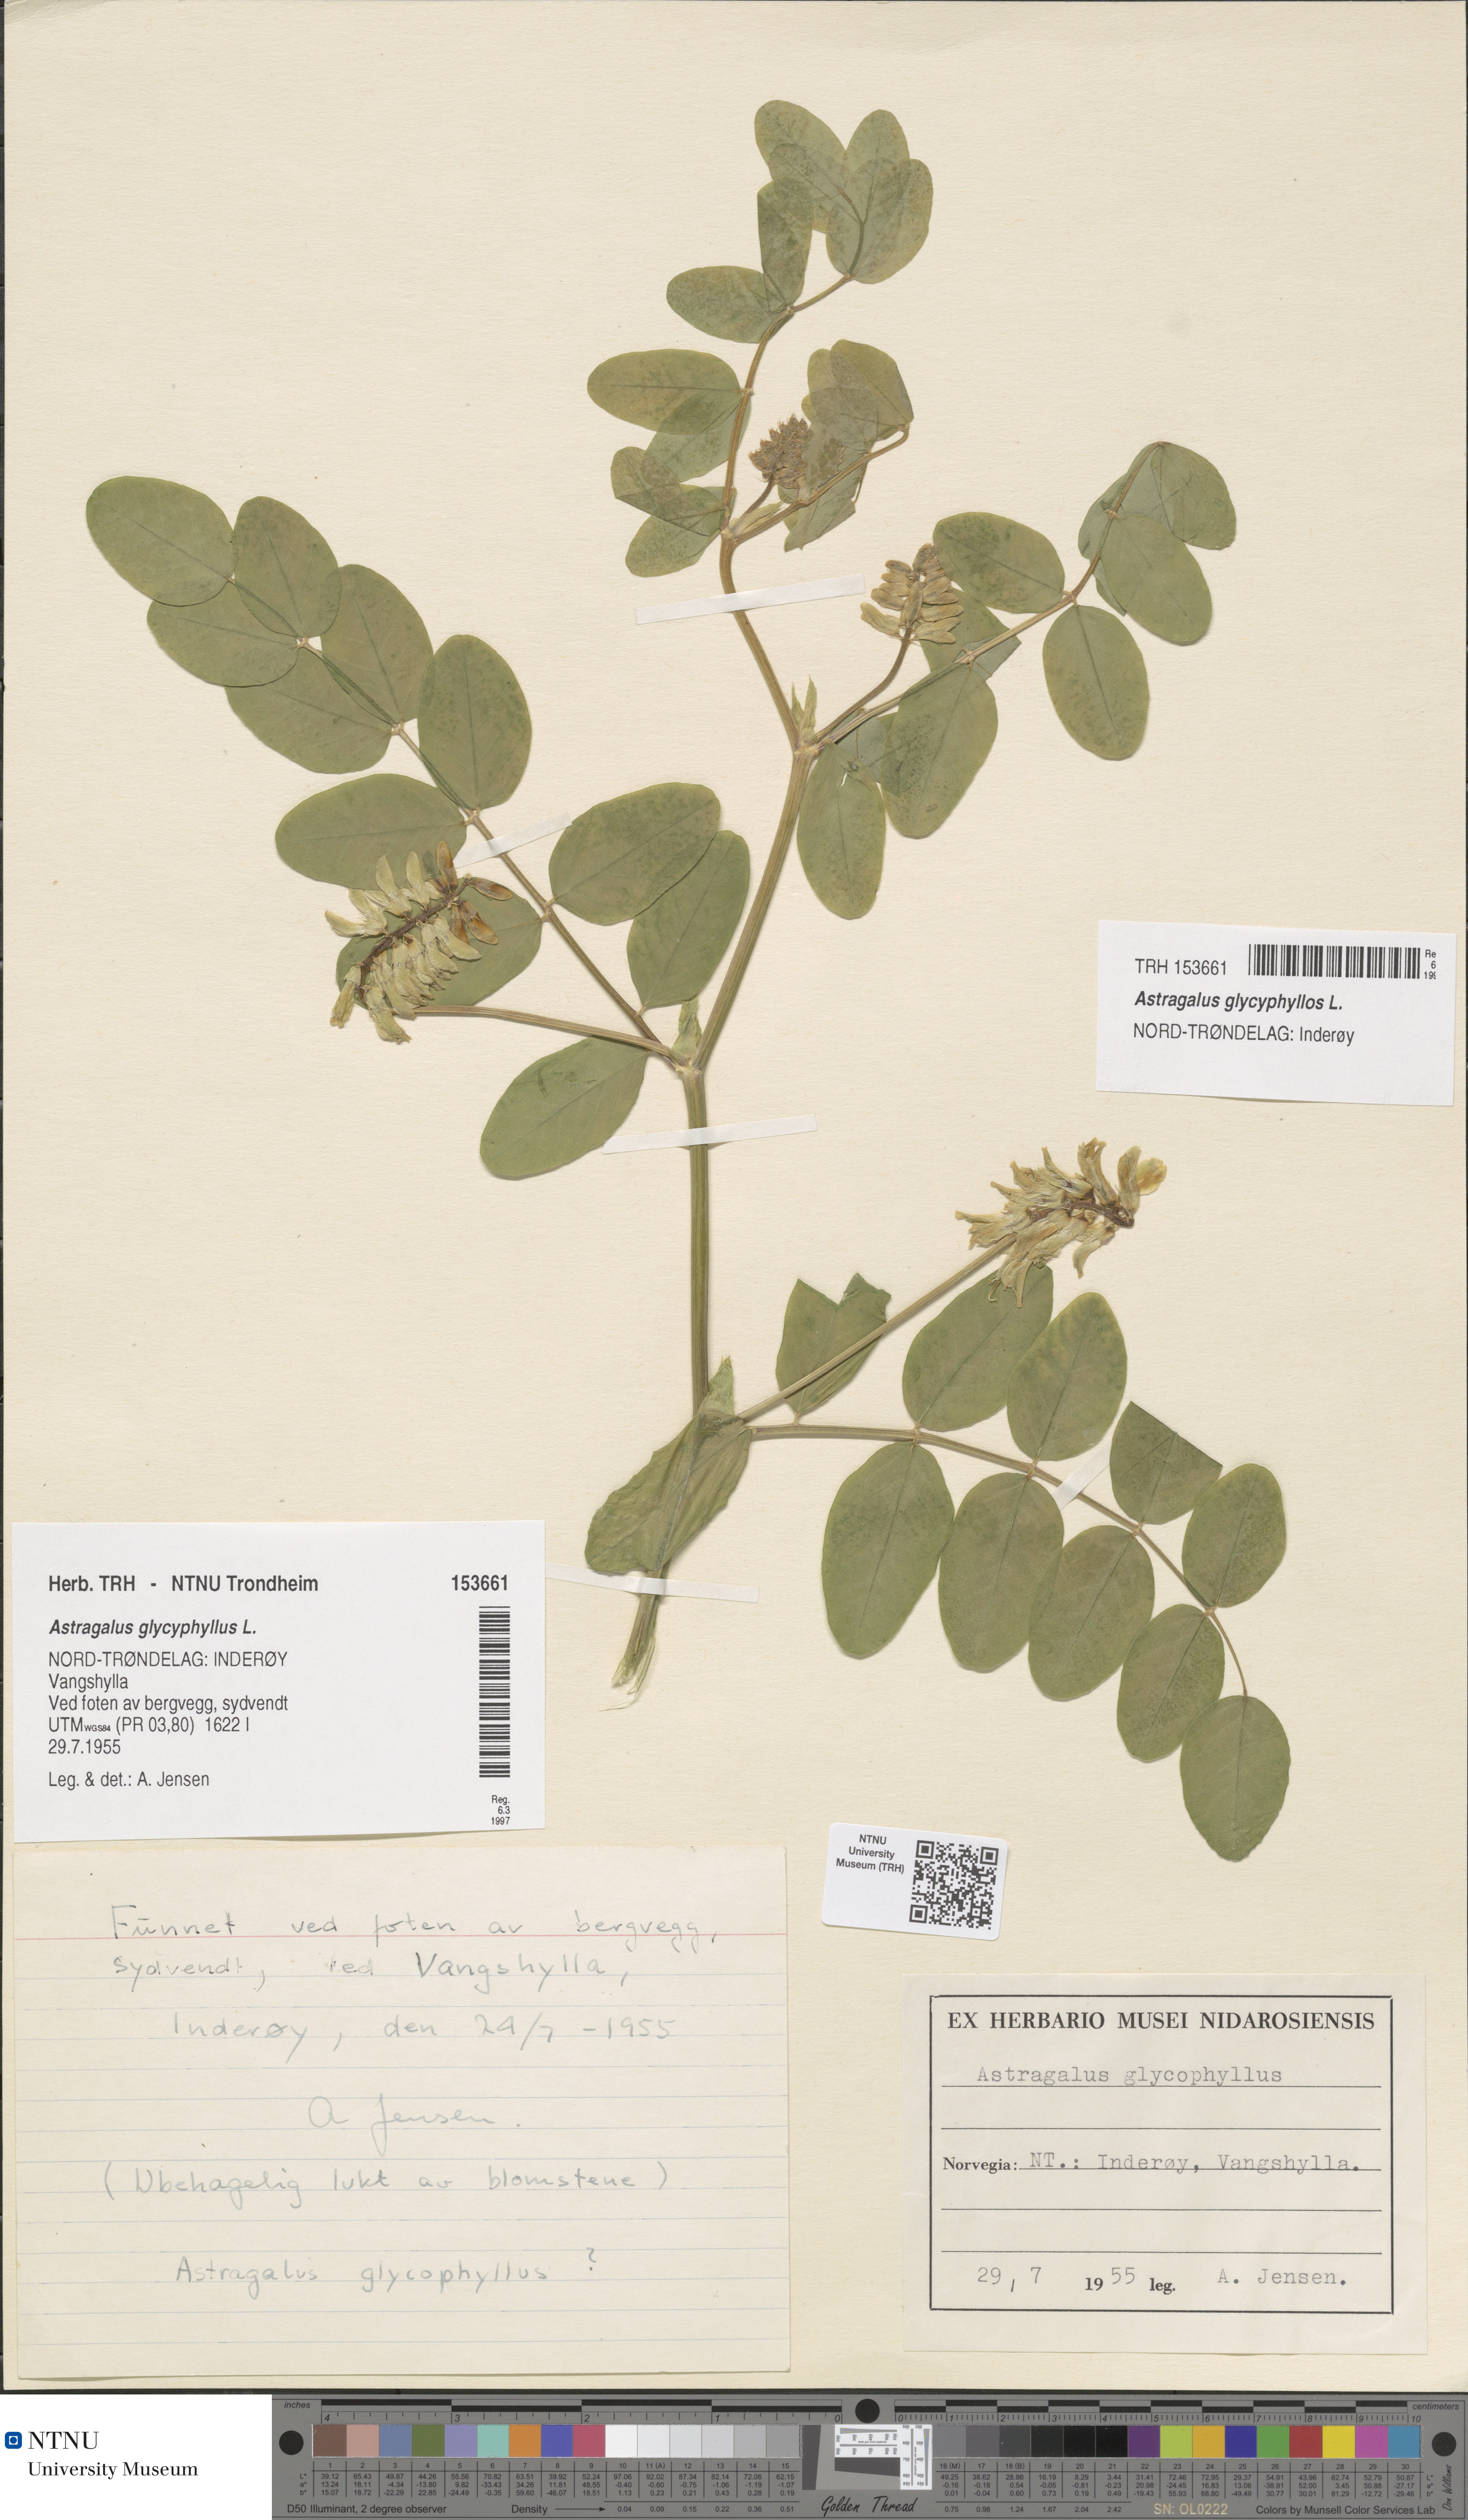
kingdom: Plantae
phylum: Tracheophyta
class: Magnoliopsida
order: Fabales
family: Fabaceae
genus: Astragalus
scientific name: Astragalus glycyphyllos
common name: Wild liquorice
